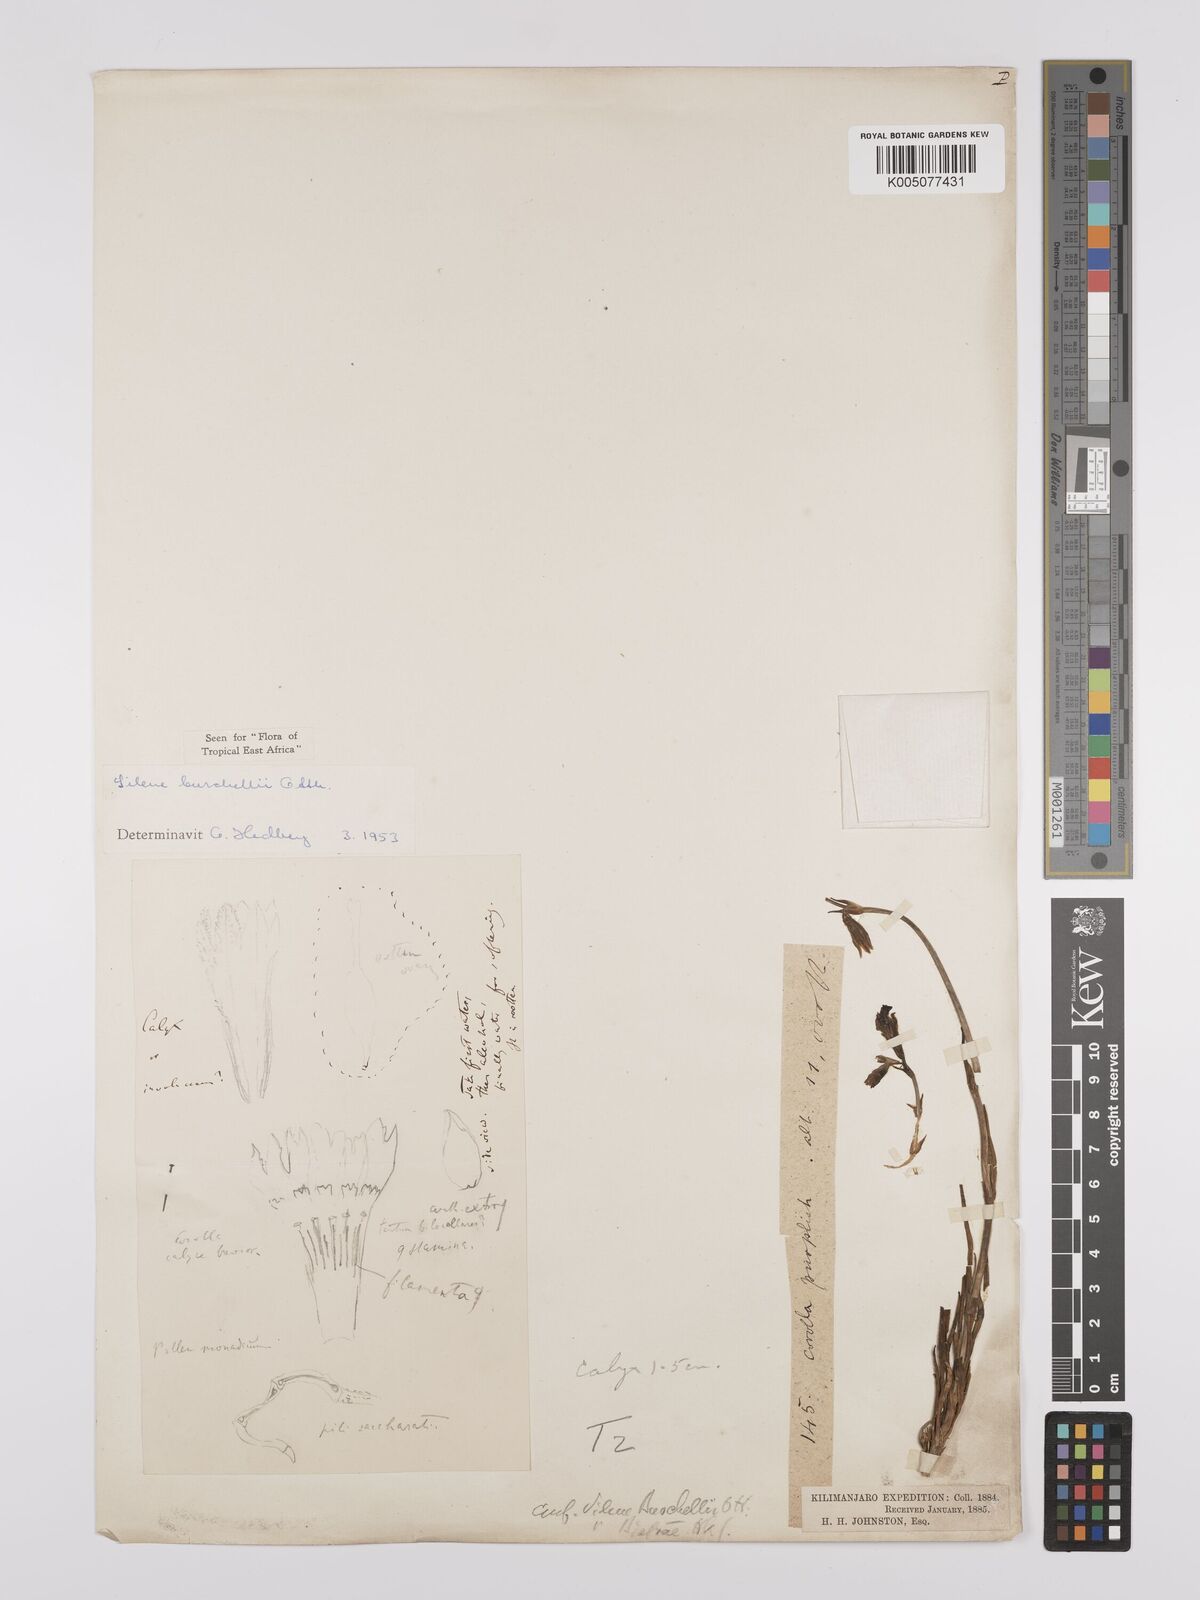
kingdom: Plantae
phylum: Tracheophyta
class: Magnoliopsida
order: Caryophyllales
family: Caryophyllaceae
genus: Silene
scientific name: Silene burchellii
